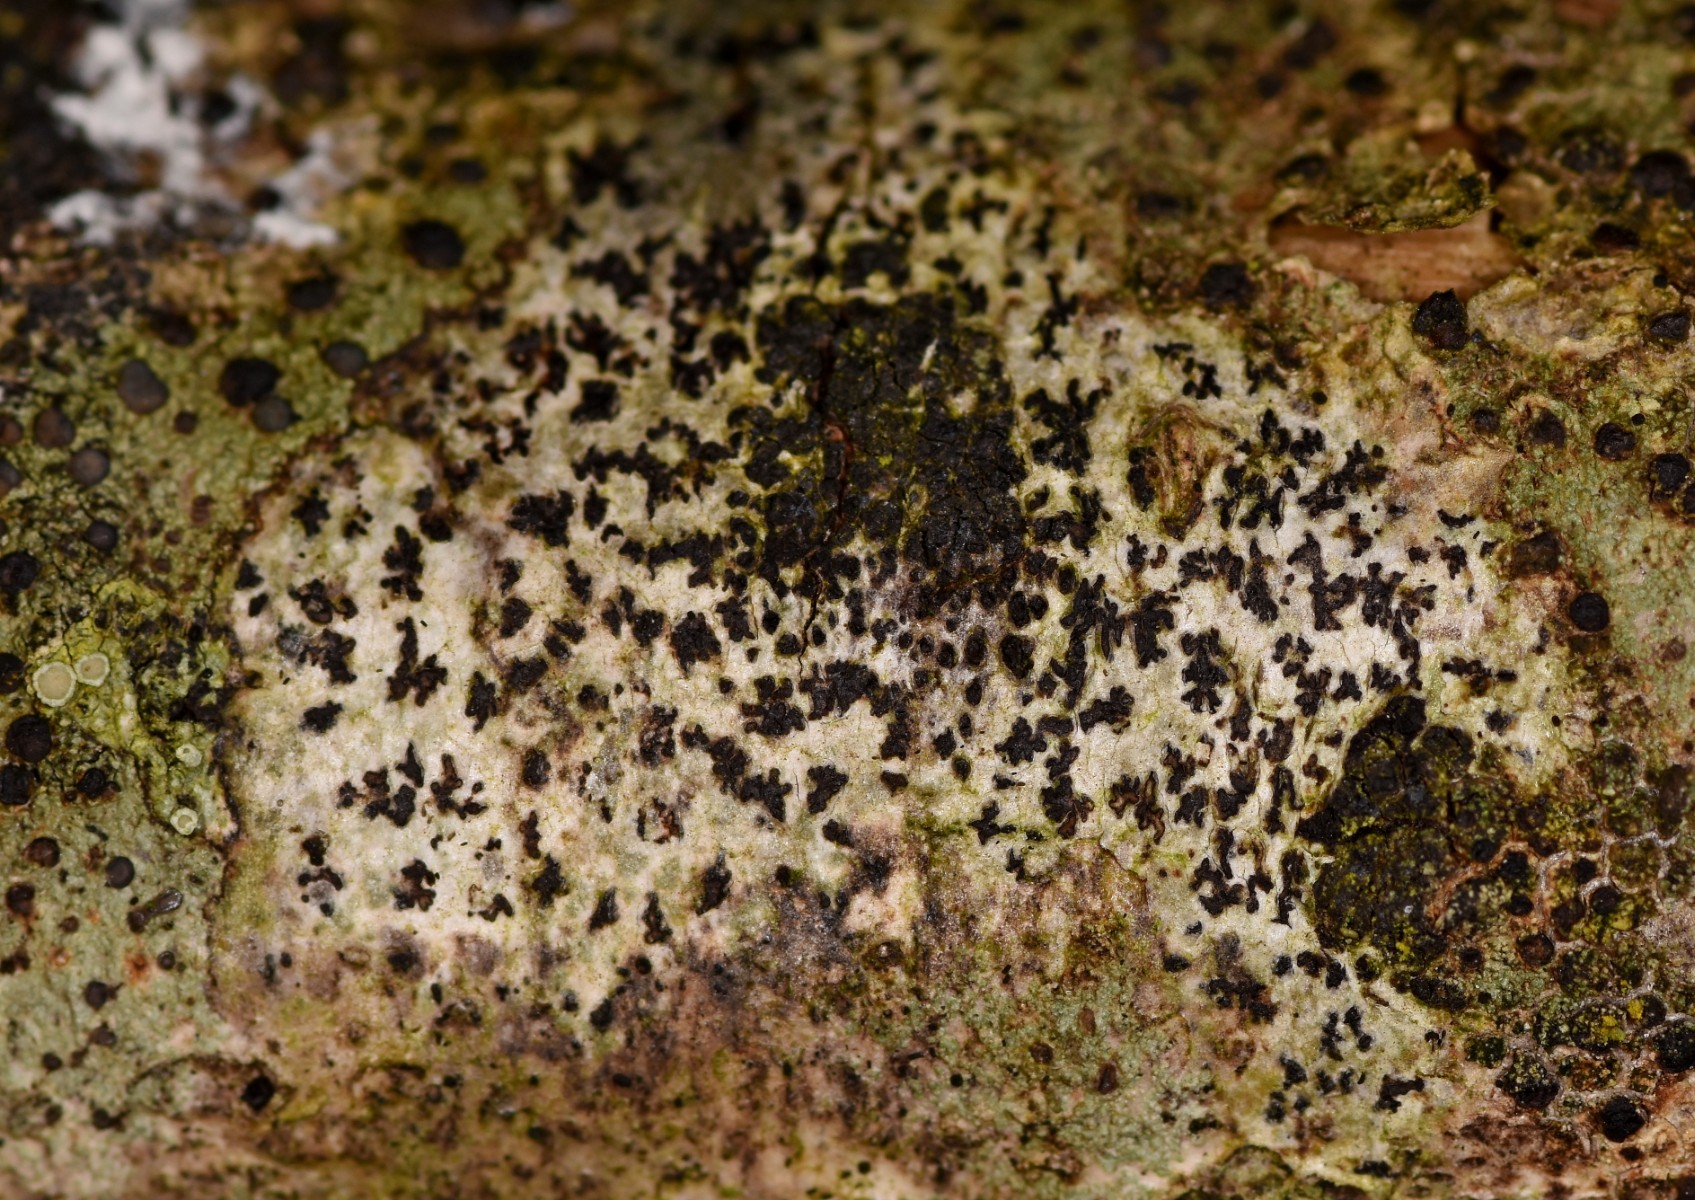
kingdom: Fungi
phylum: Ascomycota
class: Arthoniomycetes
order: Arthoniales
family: Arthoniaceae
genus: Arthonia
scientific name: Arthonia radiata
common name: stjerne-pletlav
